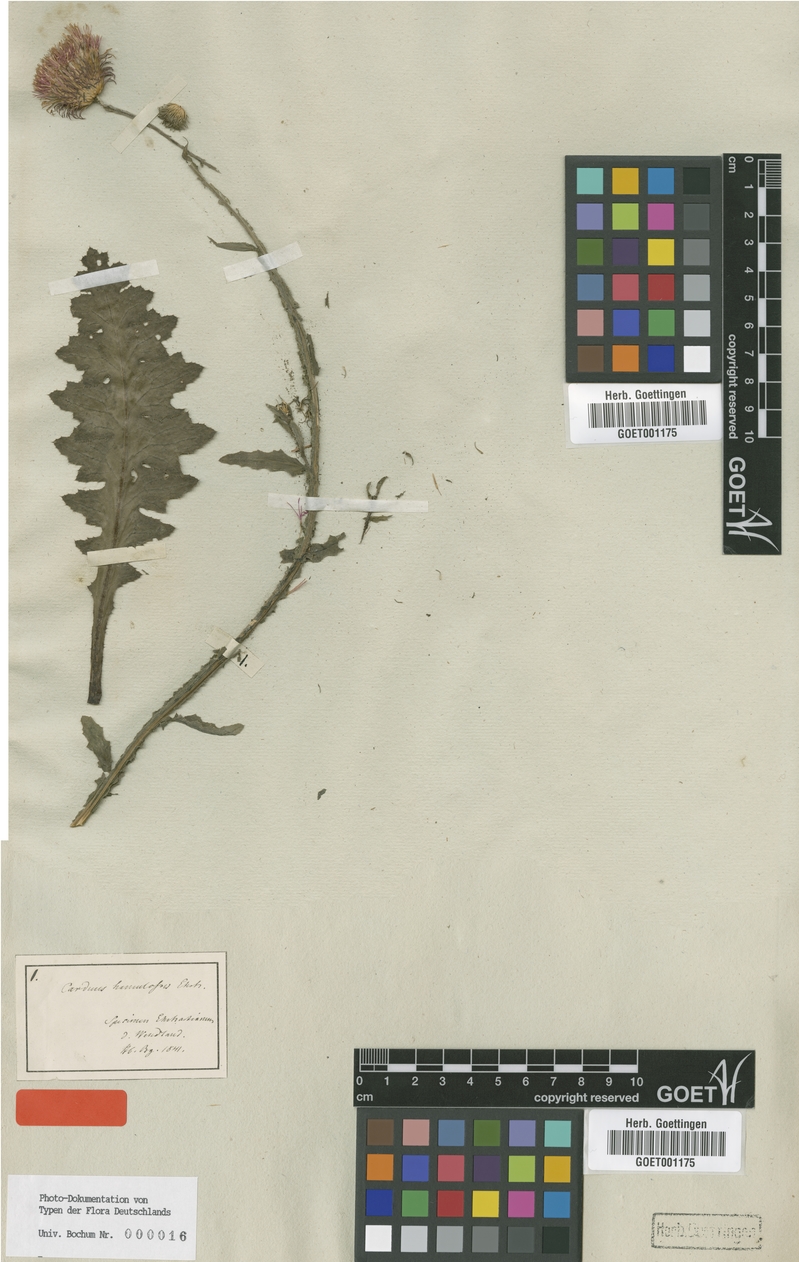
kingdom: Plantae
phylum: Tracheophyta
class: Magnoliopsida
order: Asterales
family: Asteraceae
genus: Carduus
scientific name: Carduus hamulosus
